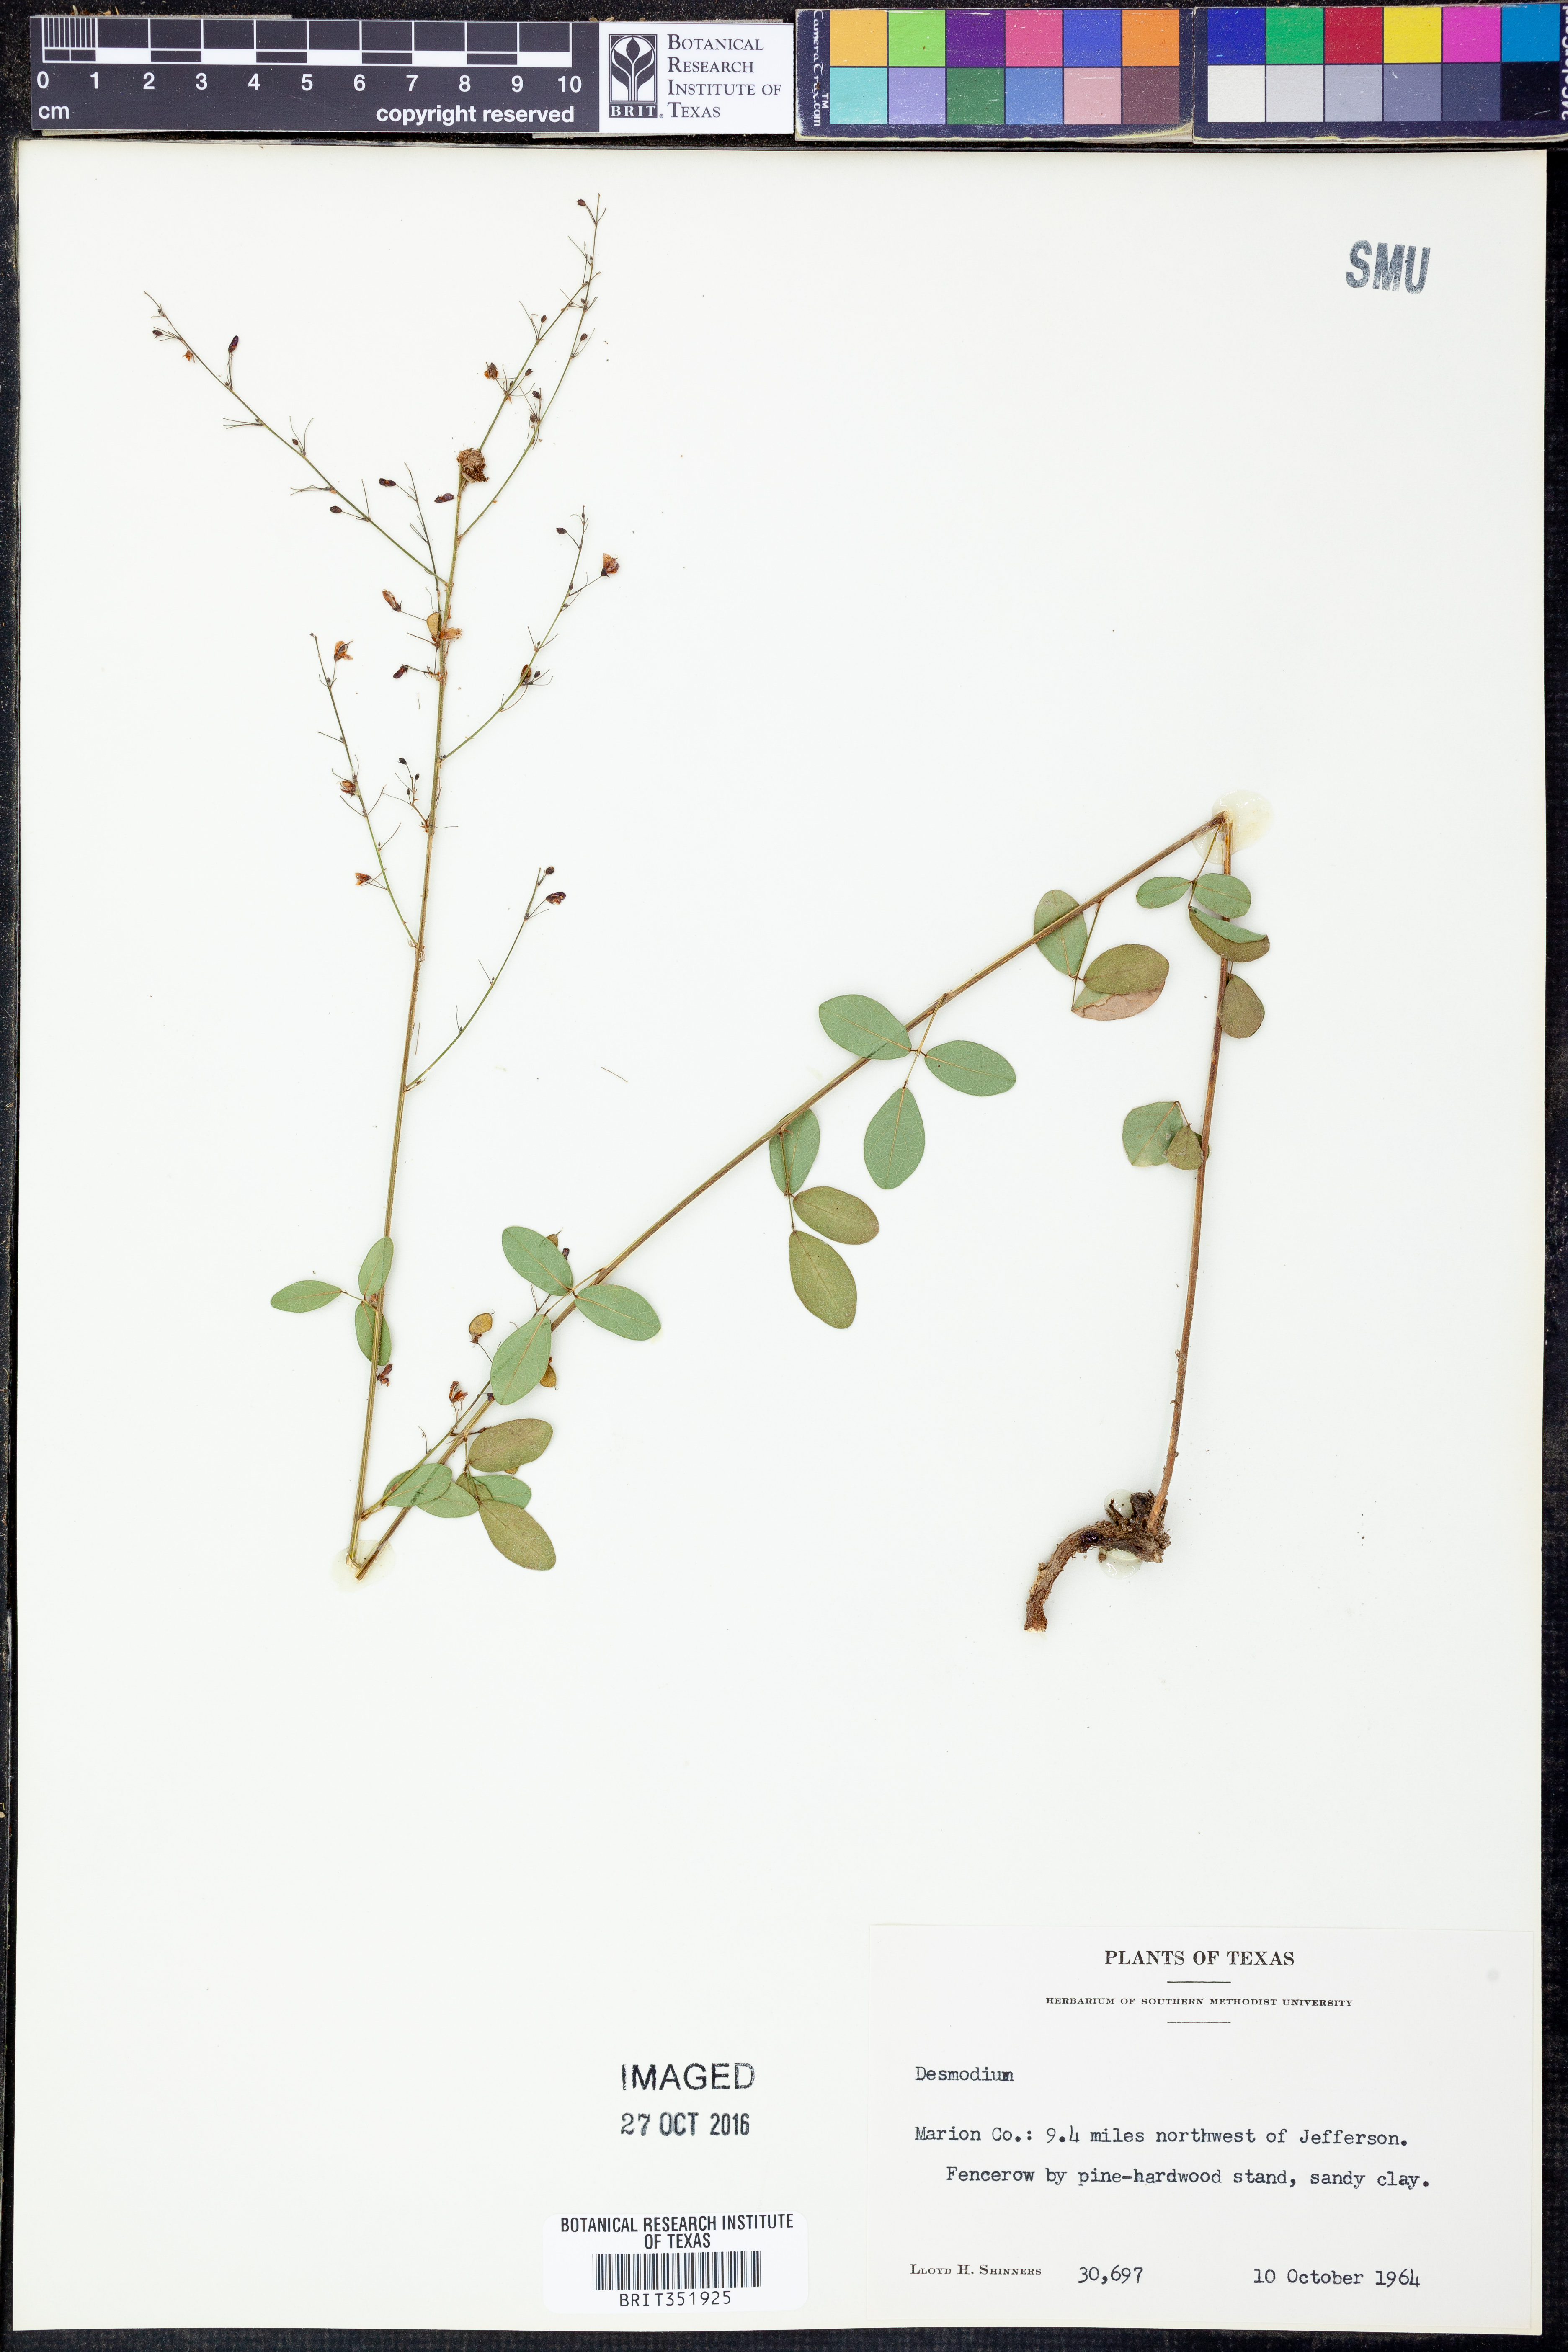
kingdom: Plantae
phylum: Tracheophyta
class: Magnoliopsida
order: Fabales
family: Fabaceae
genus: Desmodium
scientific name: Desmodium
